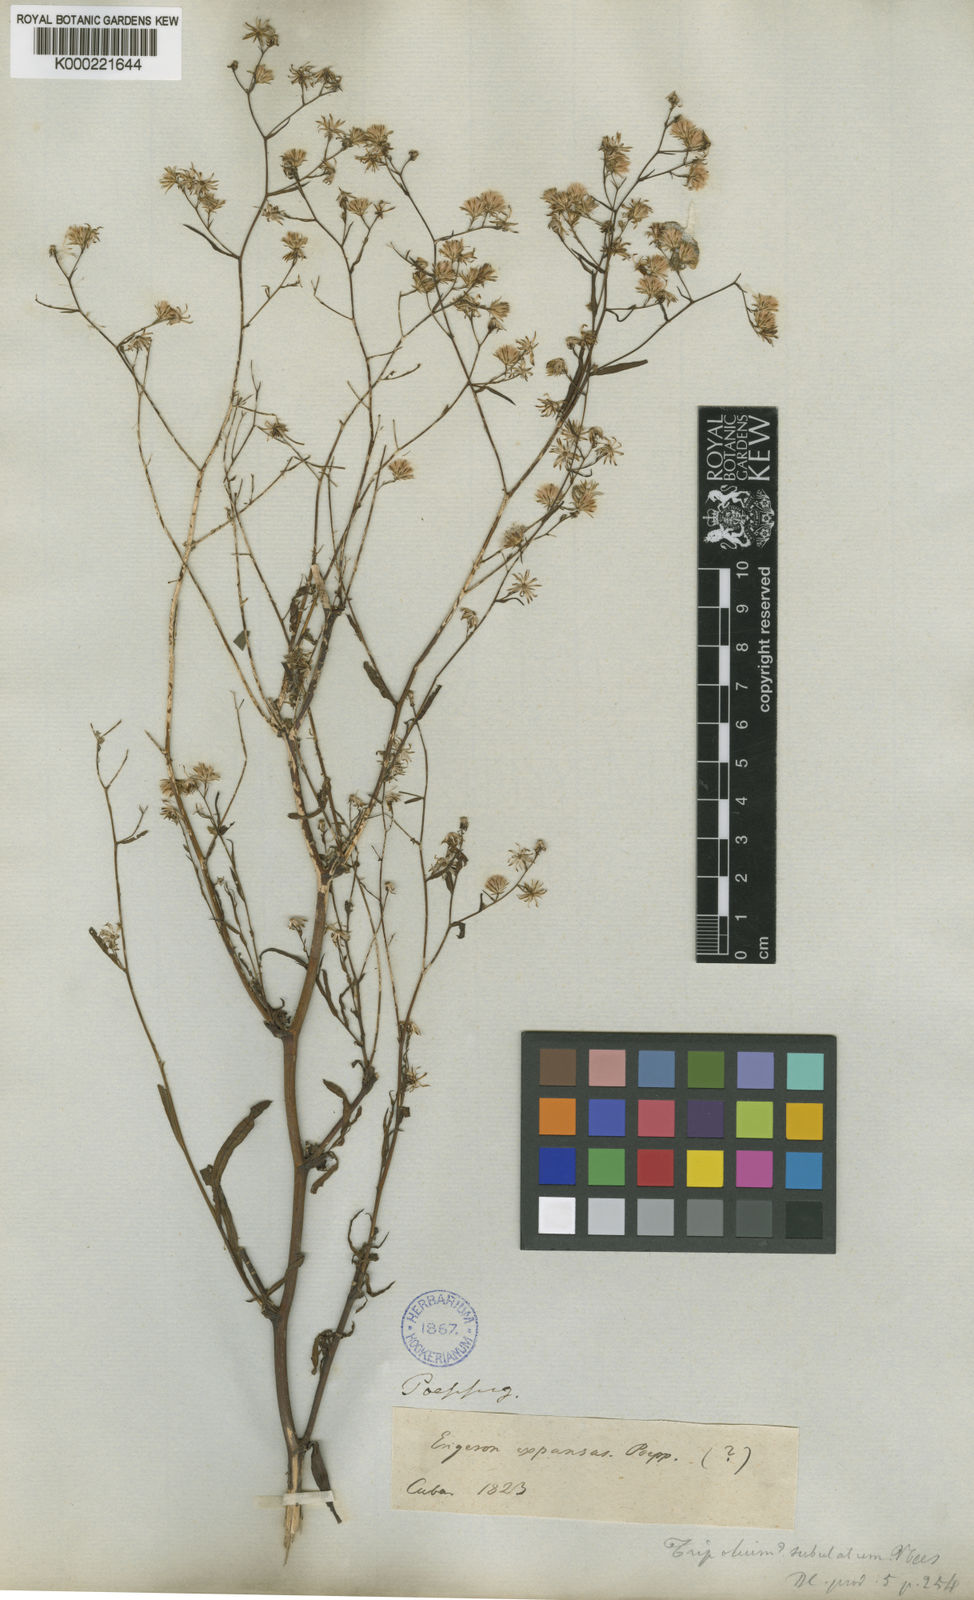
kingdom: Plantae
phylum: Tracheophyta
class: Magnoliopsida
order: Asterales
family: Asteraceae
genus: Symphyotrichum
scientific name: Symphyotrichum expansum
